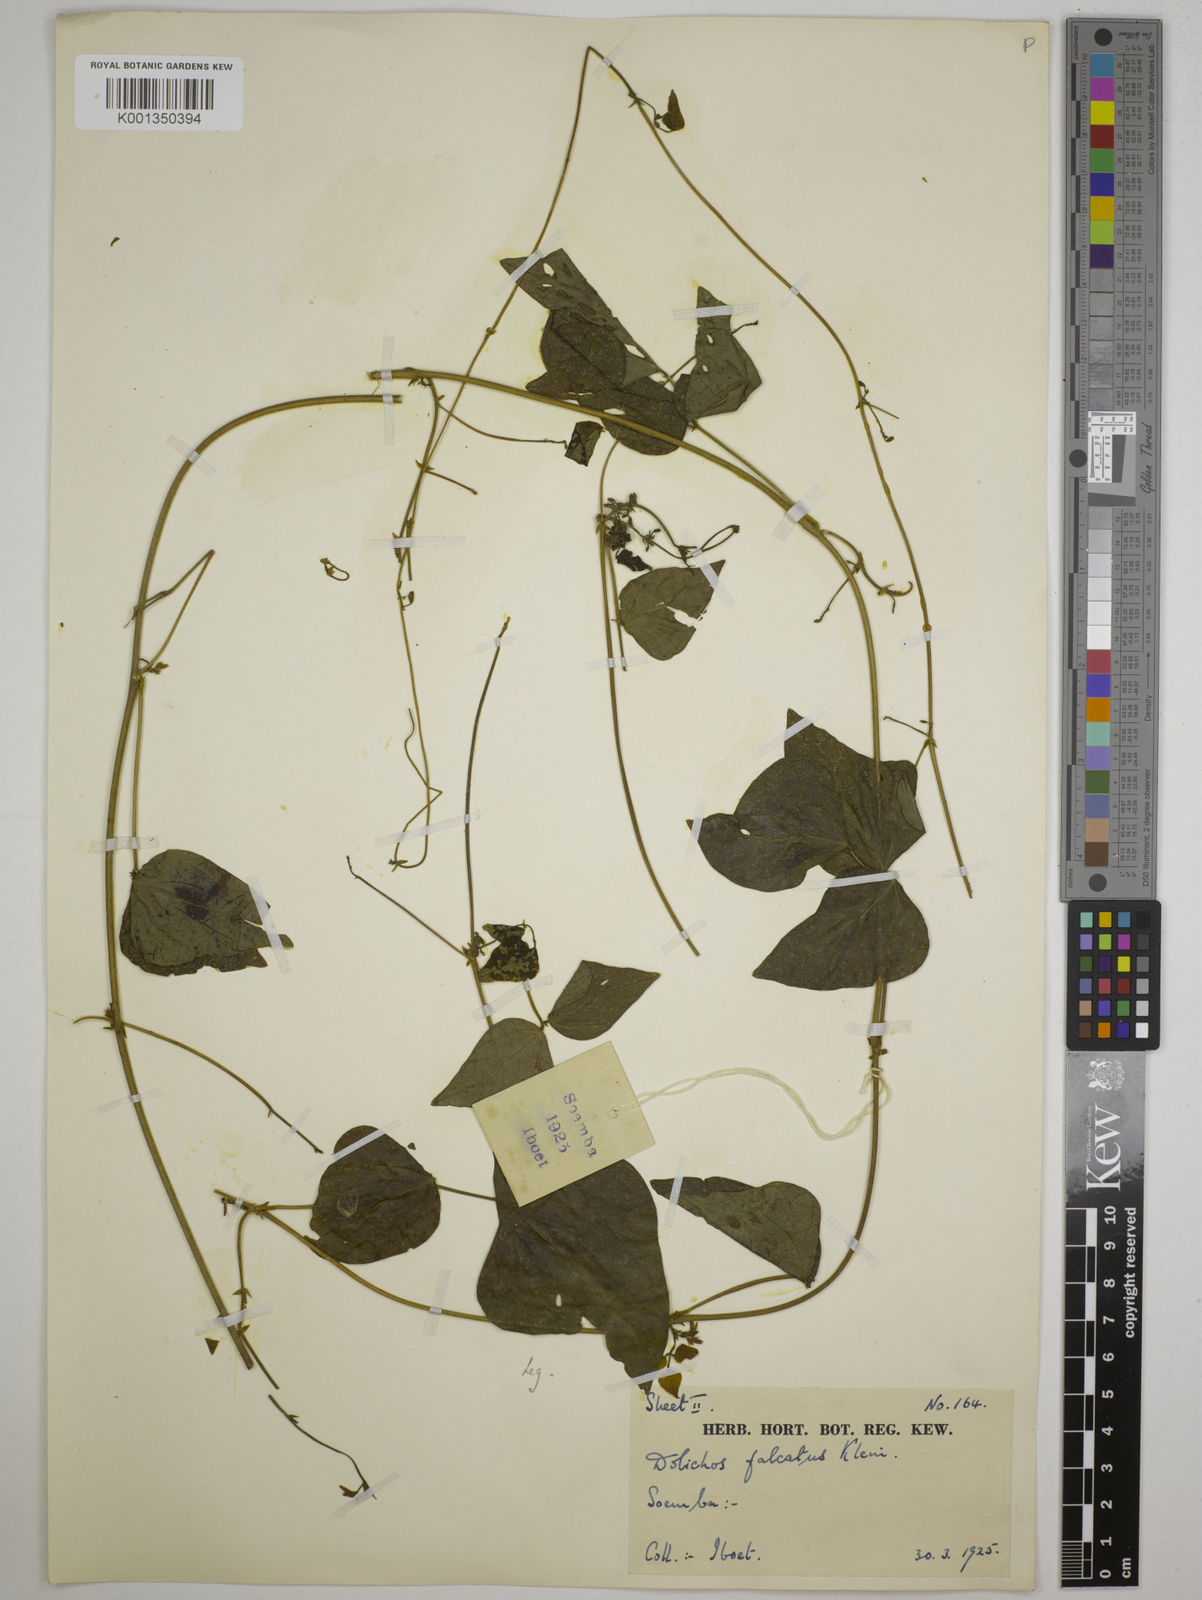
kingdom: Plantae
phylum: Tracheophyta
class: Magnoliopsida
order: Fabales
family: Fabaceae
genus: Dolichos
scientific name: Dolichos
